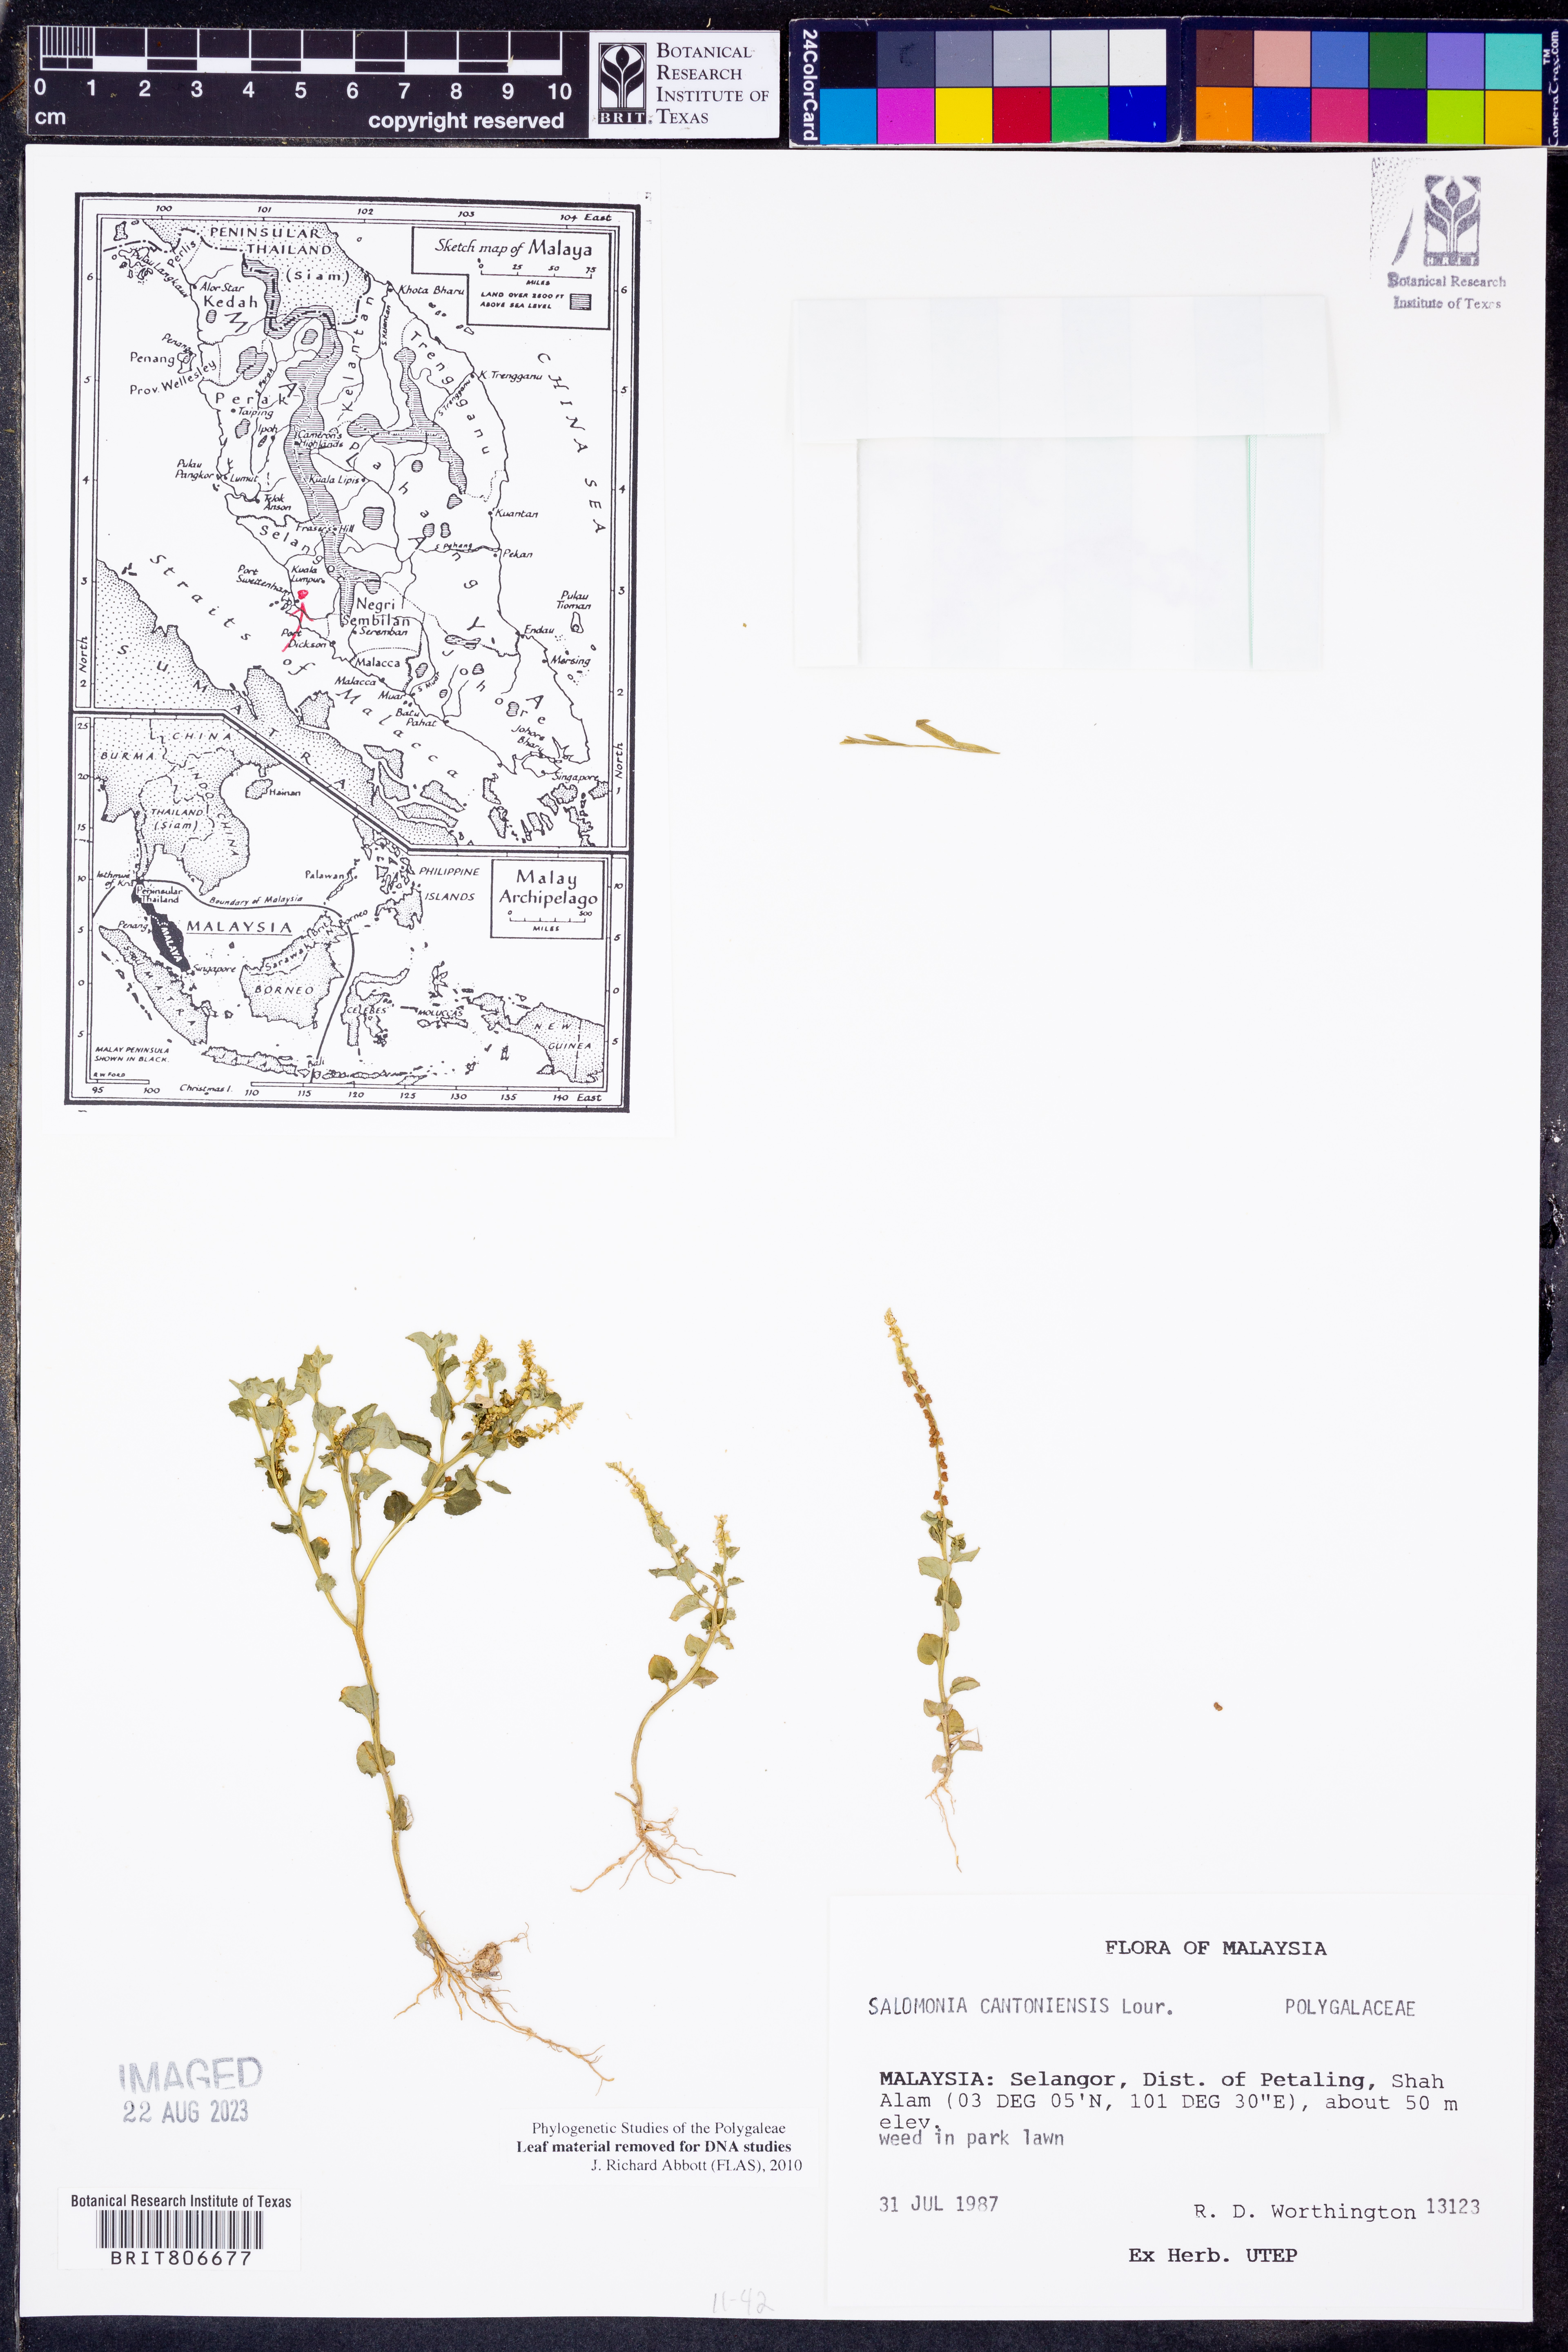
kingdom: Plantae
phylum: Tracheophyta
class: Magnoliopsida
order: Fabales
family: Polygalaceae
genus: Salomonia
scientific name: Salomonia cantoniensis
